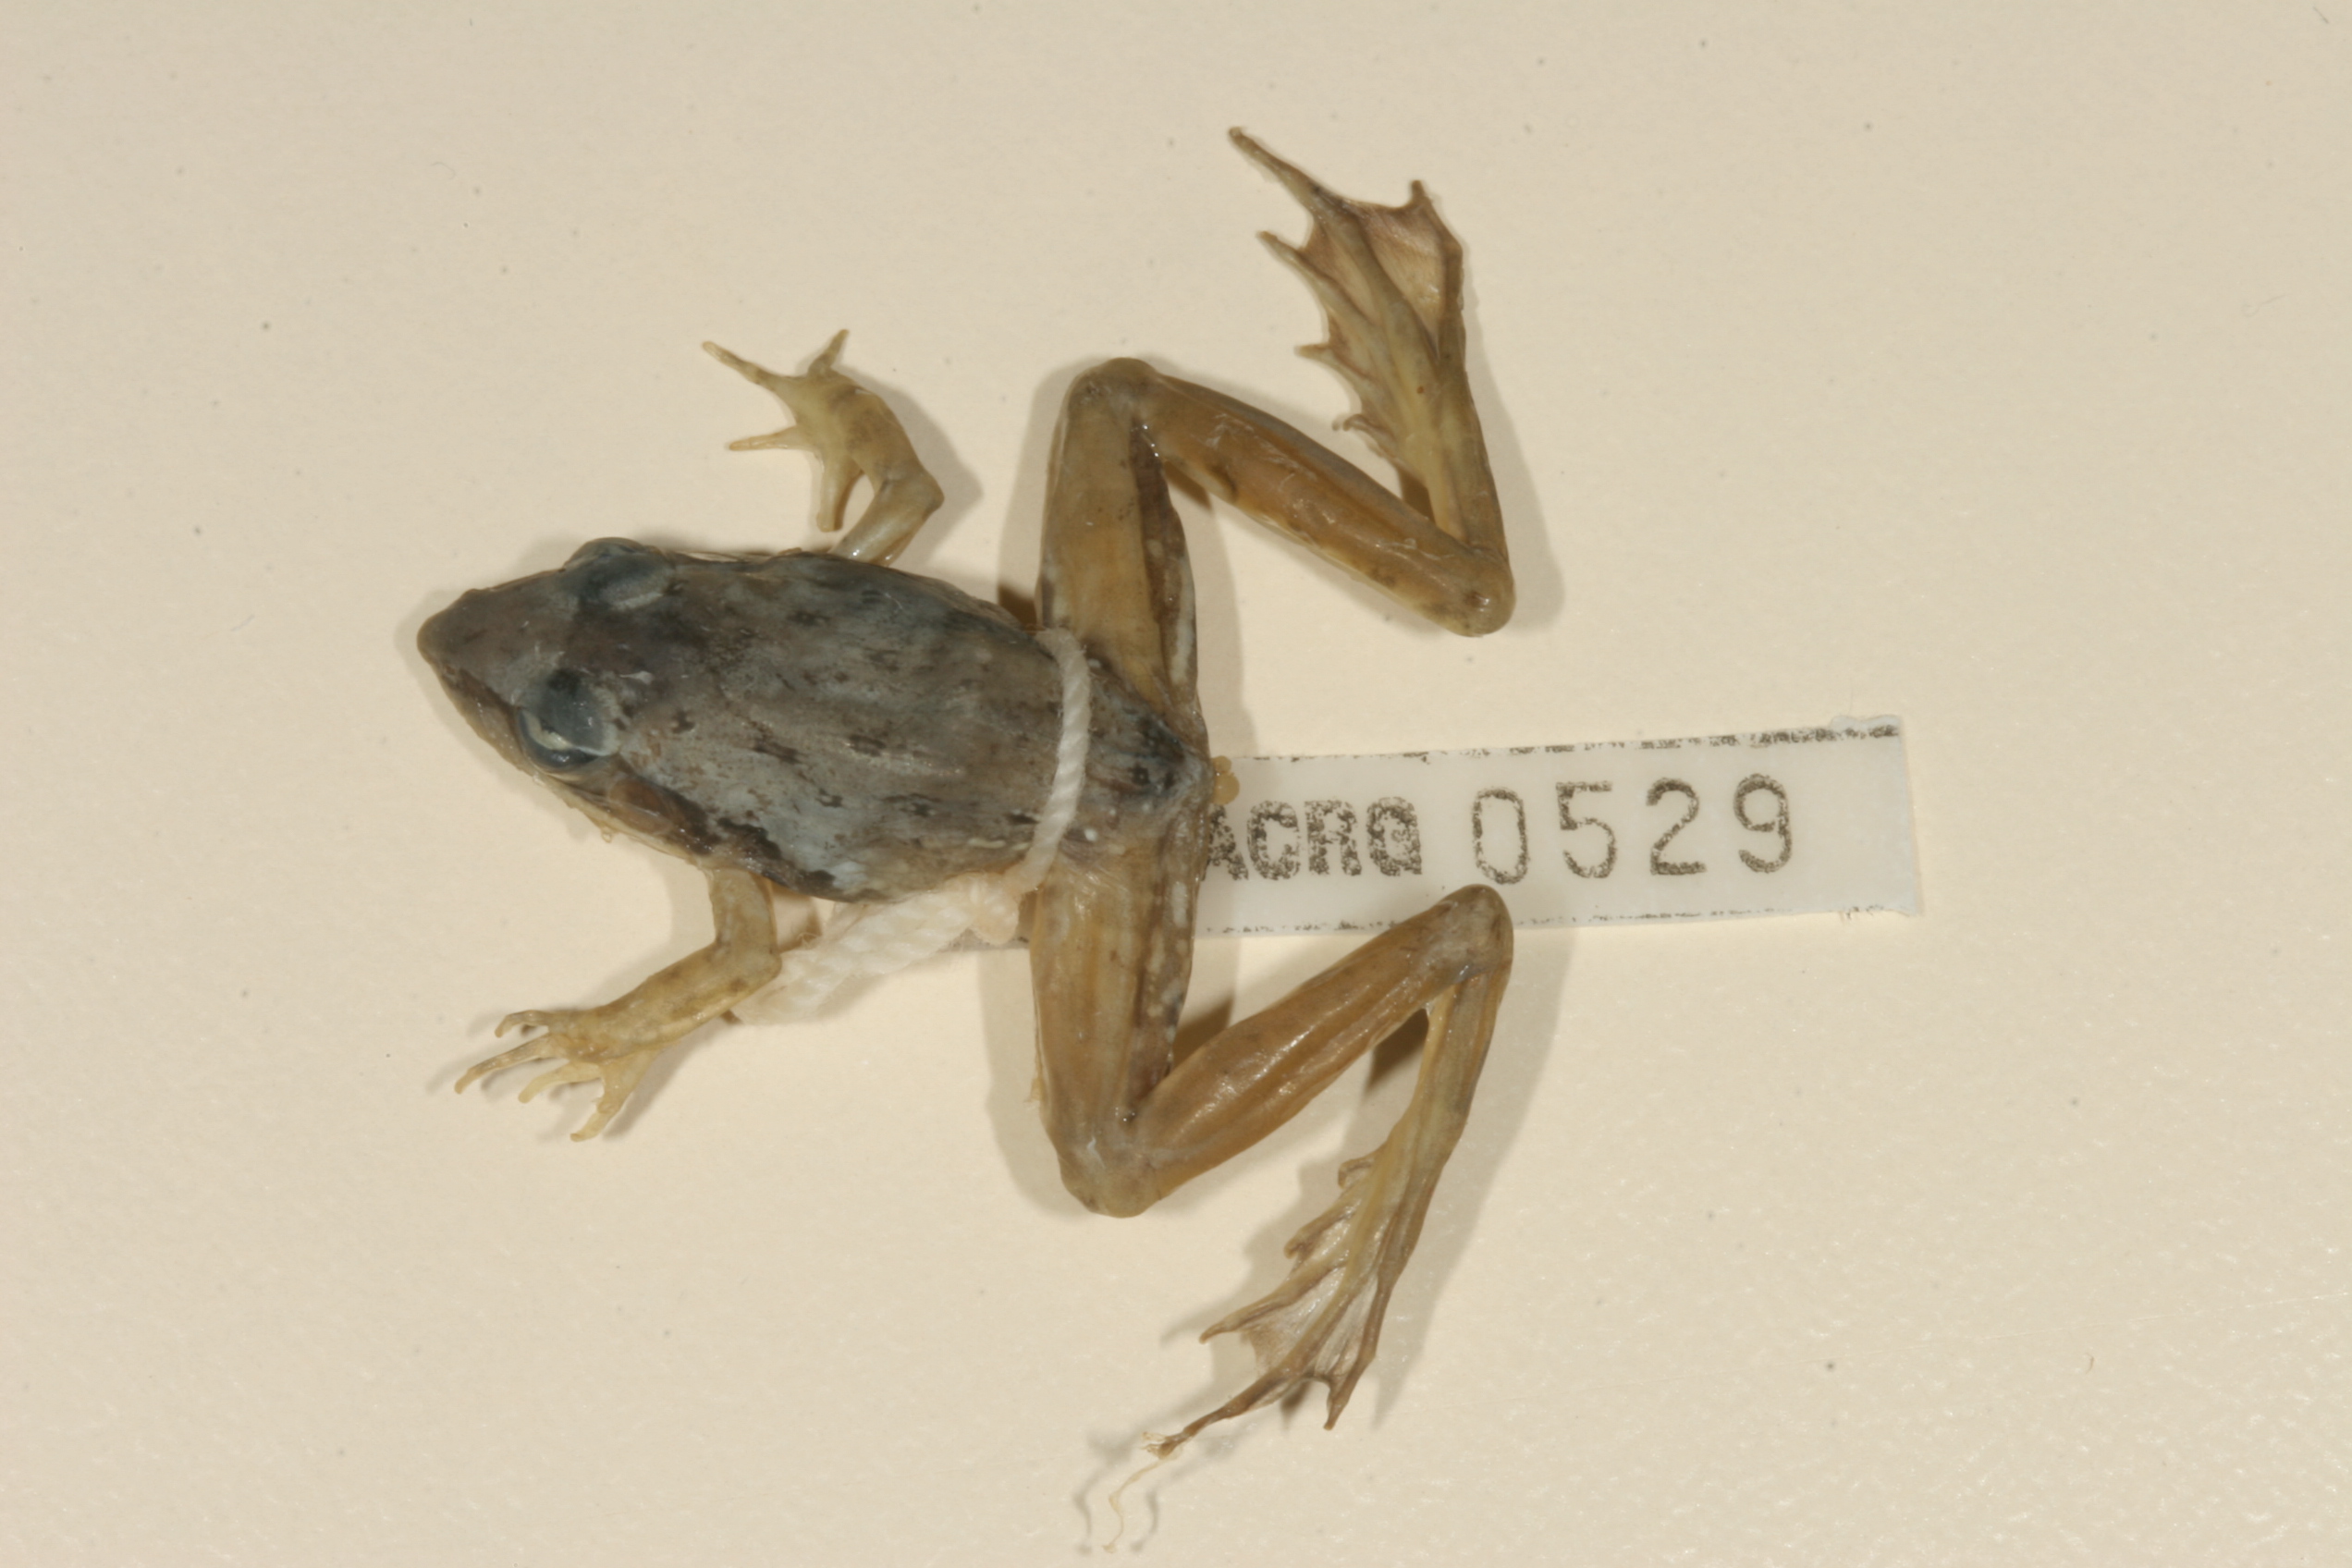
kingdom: Animalia
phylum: Chordata
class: Amphibia
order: Anura
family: Ptychadenidae
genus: Ptychadena
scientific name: Ptychadena anchietae
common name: Anchieta's ridged frog
